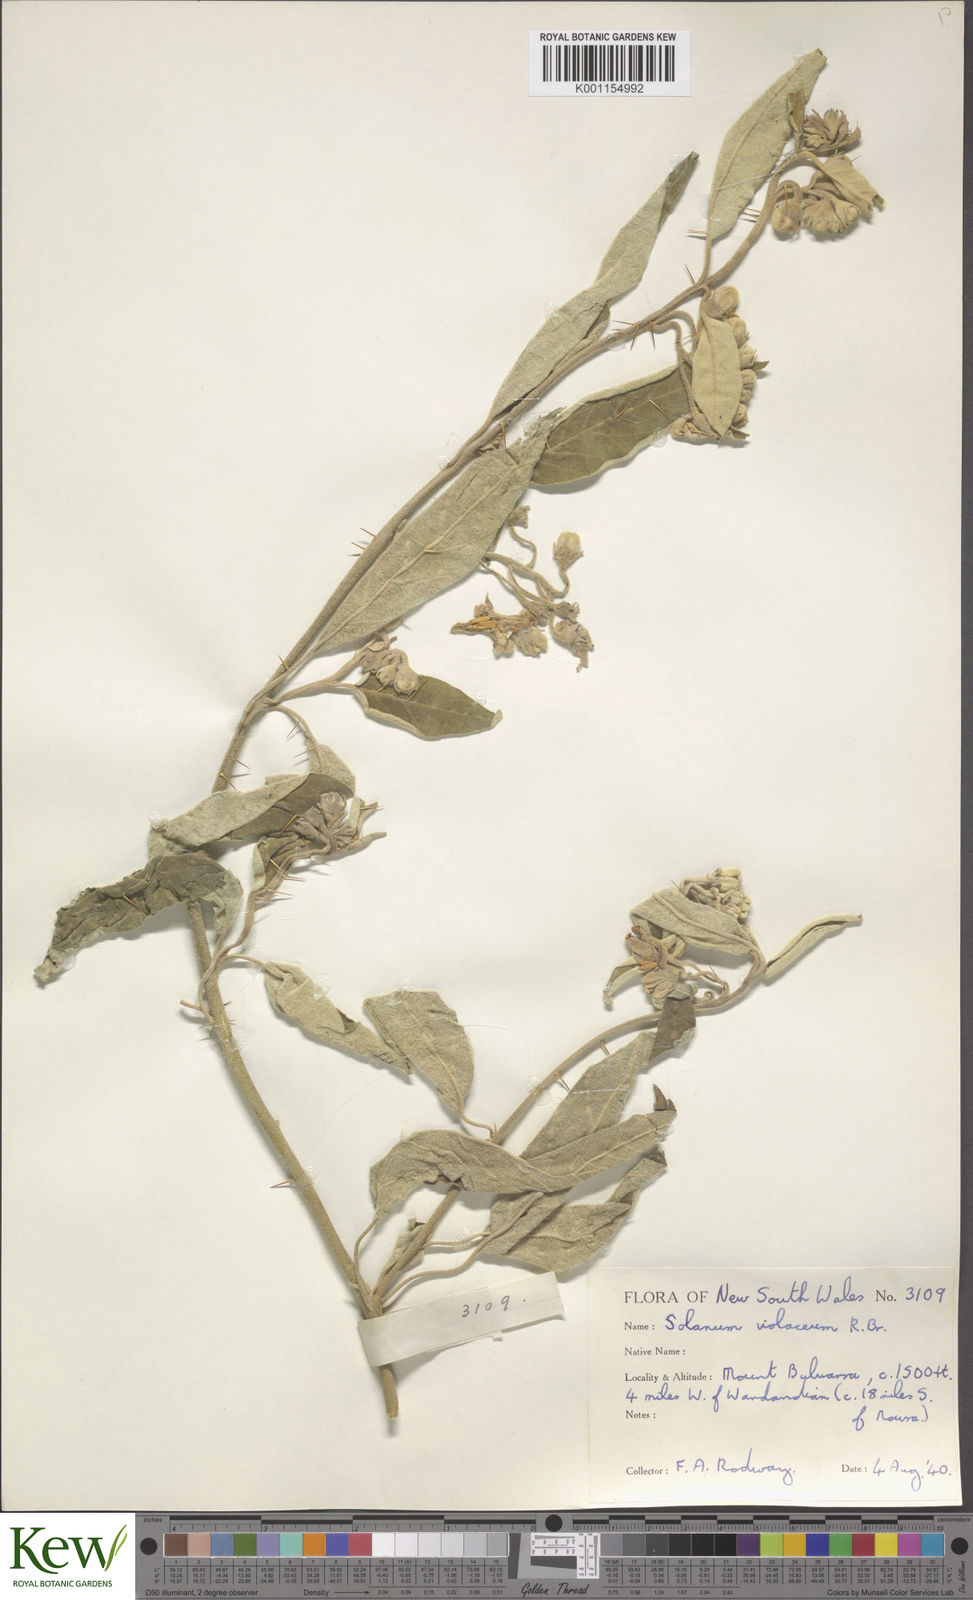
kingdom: Plantae
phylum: Tracheophyta
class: Magnoliopsida
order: Solanales
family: Solanaceae
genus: Solanum
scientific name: Solanum brownii
